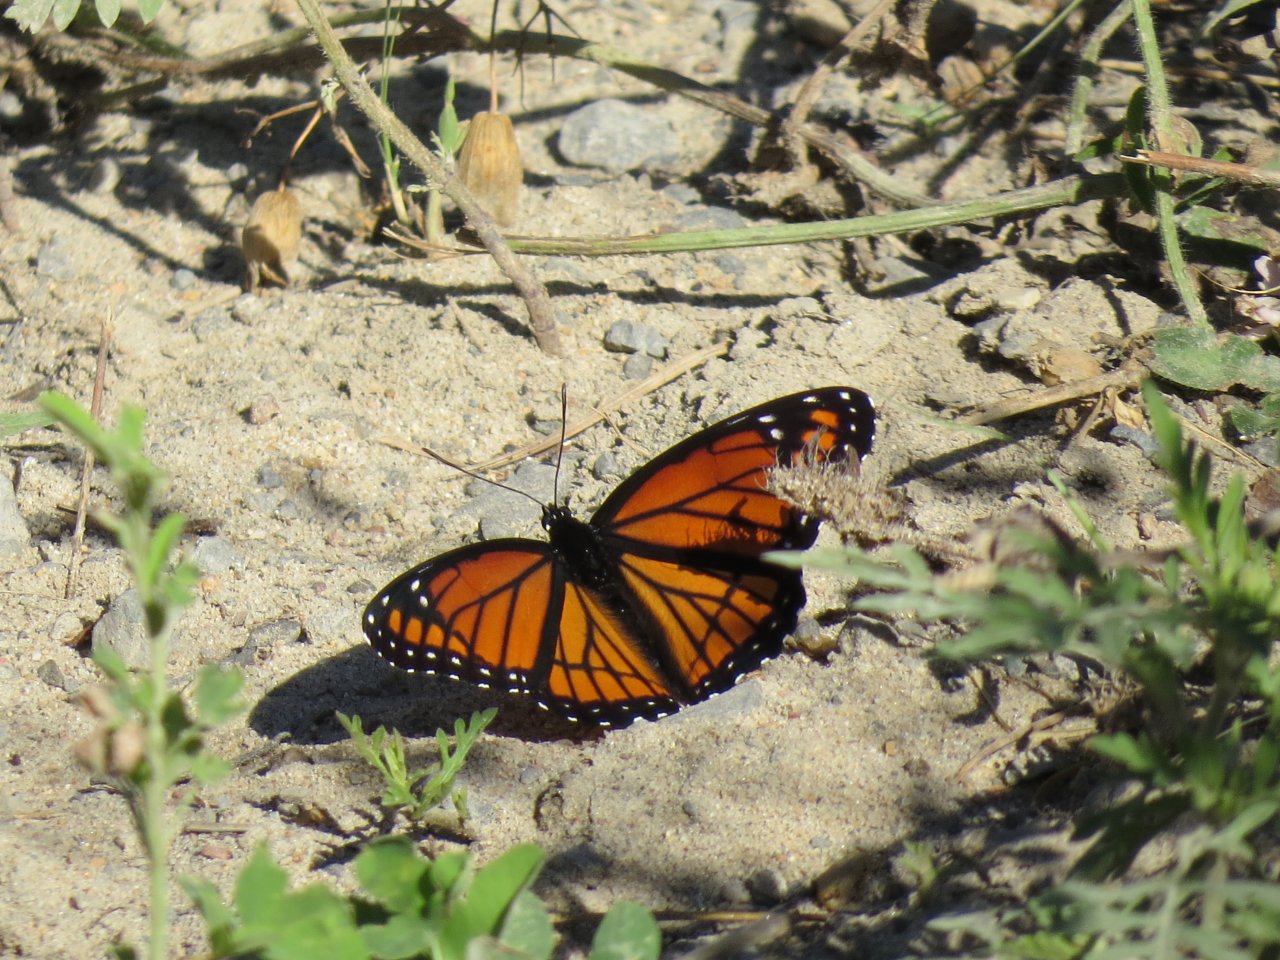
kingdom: Animalia
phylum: Arthropoda
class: Insecta
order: Lepidoptera
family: Nymphalidae
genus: Limenitis
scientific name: Limenitis archippus
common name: Viceroy
